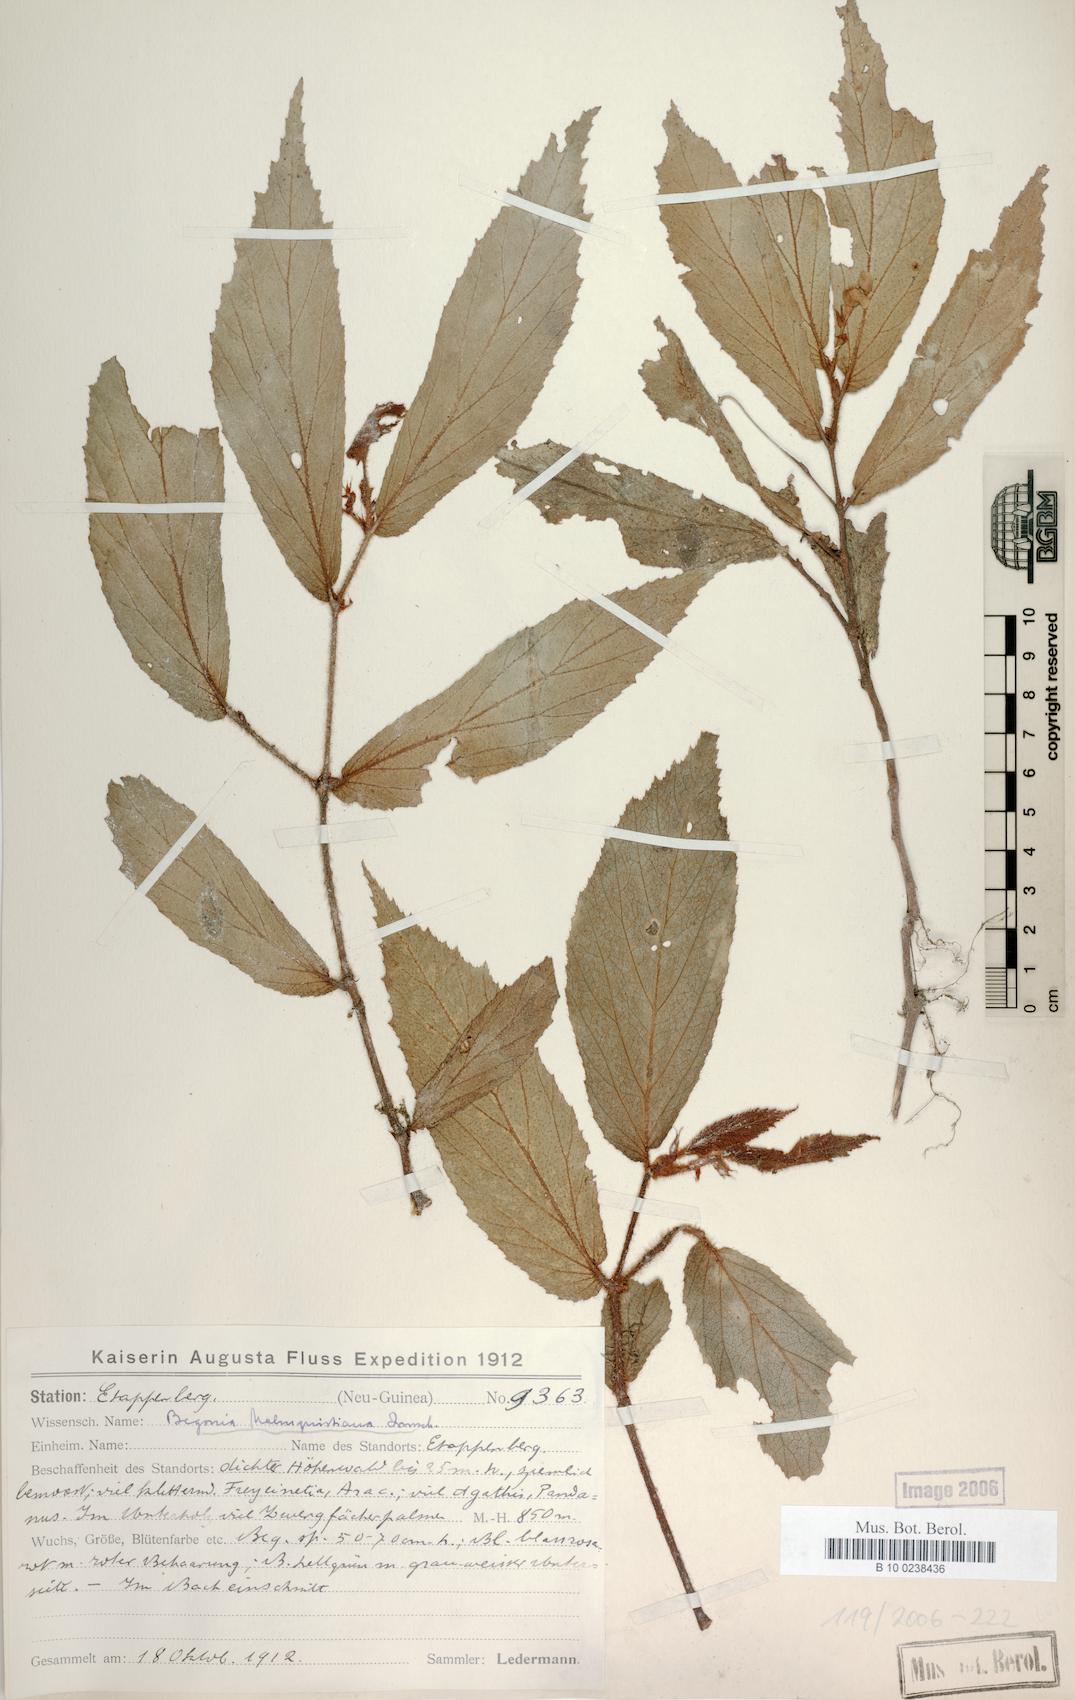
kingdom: Plantae
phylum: Tracheophyta
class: Magnoliopsida
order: Cucurbitales
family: Begoniaceae
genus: Begonia
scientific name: Begonia malmquistiana
